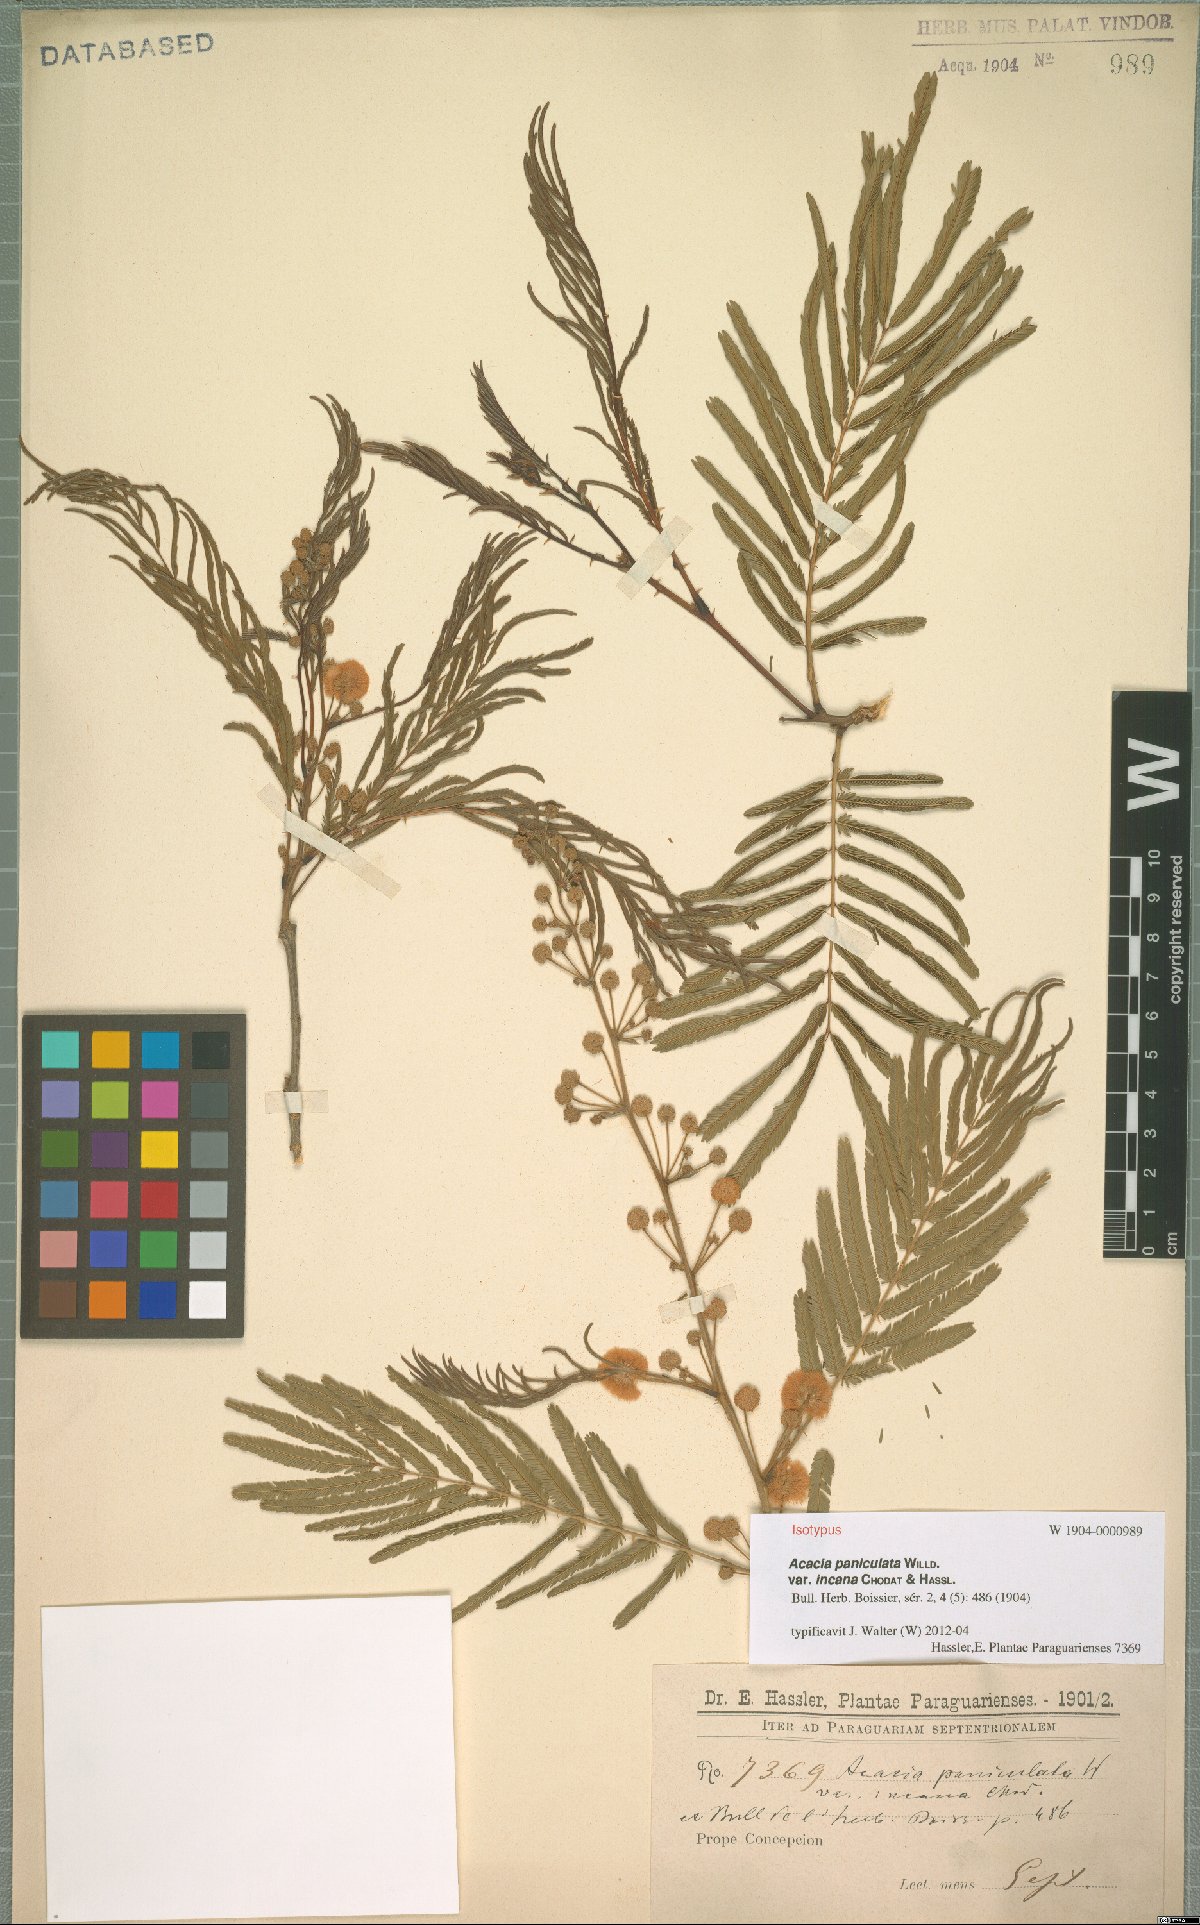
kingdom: Plantae
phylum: Tracheophyta
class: Magnoliopsida
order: Fabales
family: Fabaceae
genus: Senegalia
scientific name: Senegalia martii
